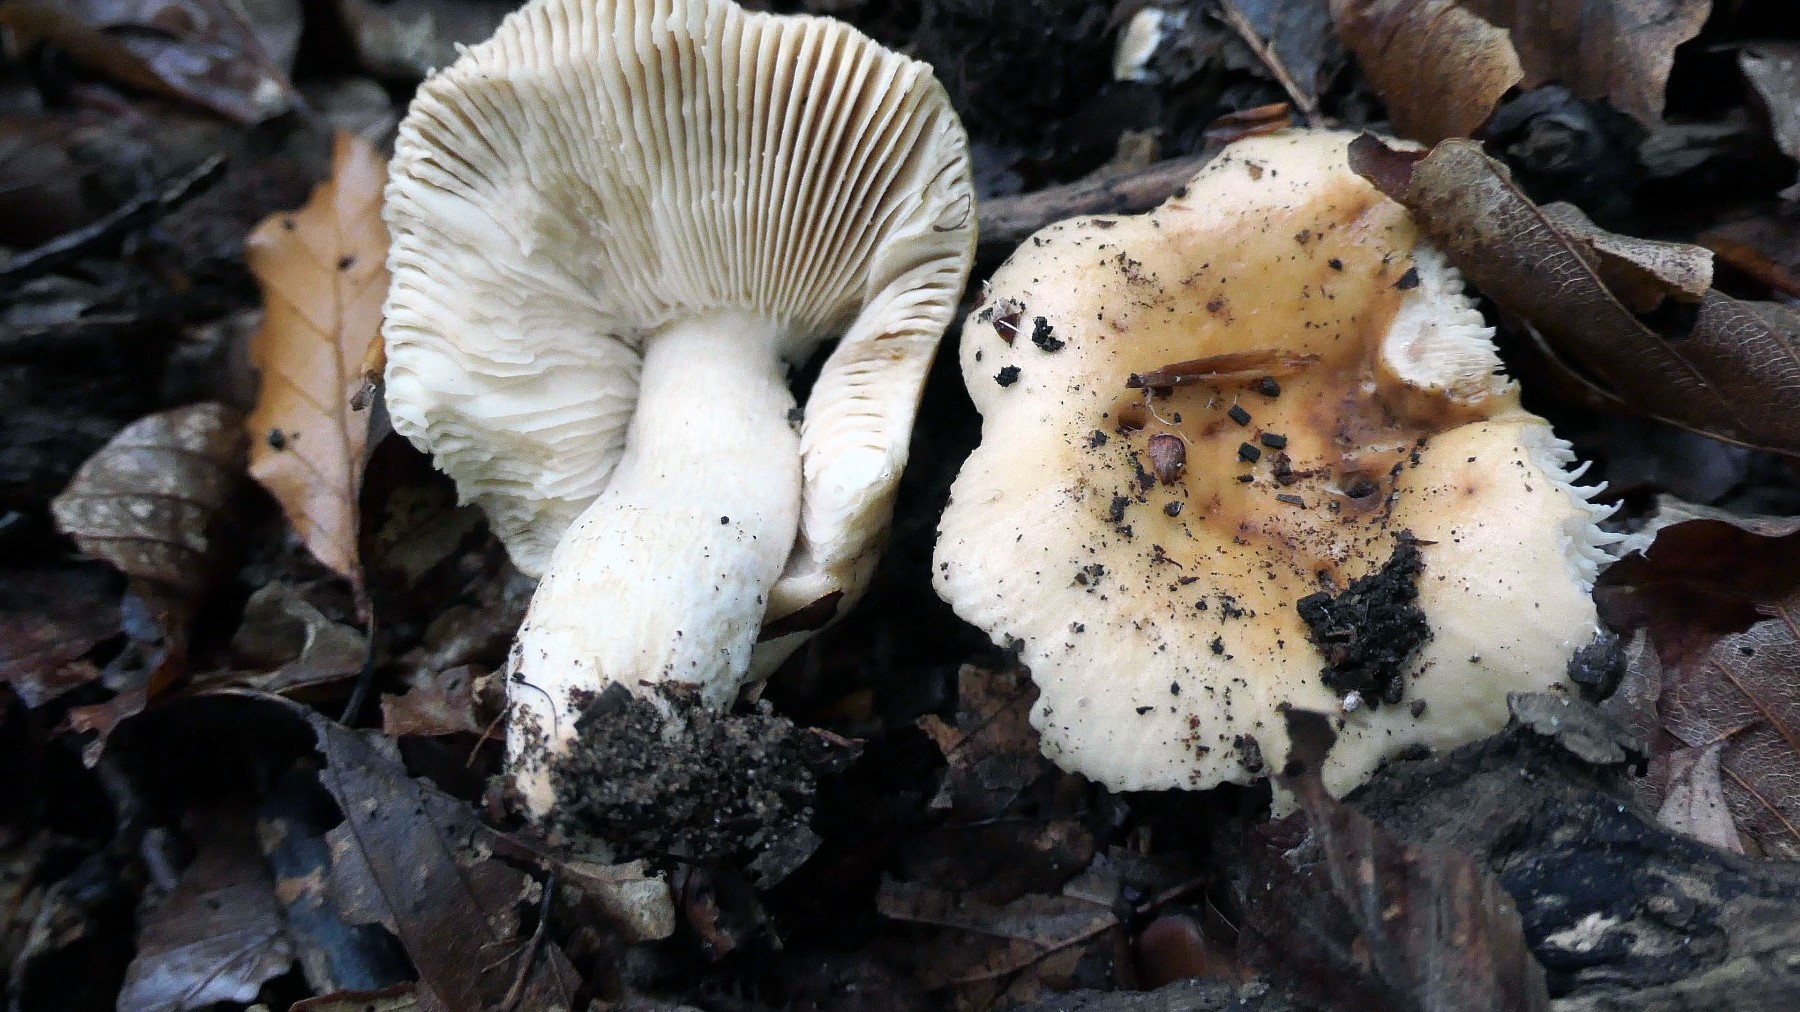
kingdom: Fungi
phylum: Basidiomycota
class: Agaricomycetes
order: Russulales
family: Russulaceae
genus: Russula
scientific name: Russula fellea
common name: galde-skørhat
